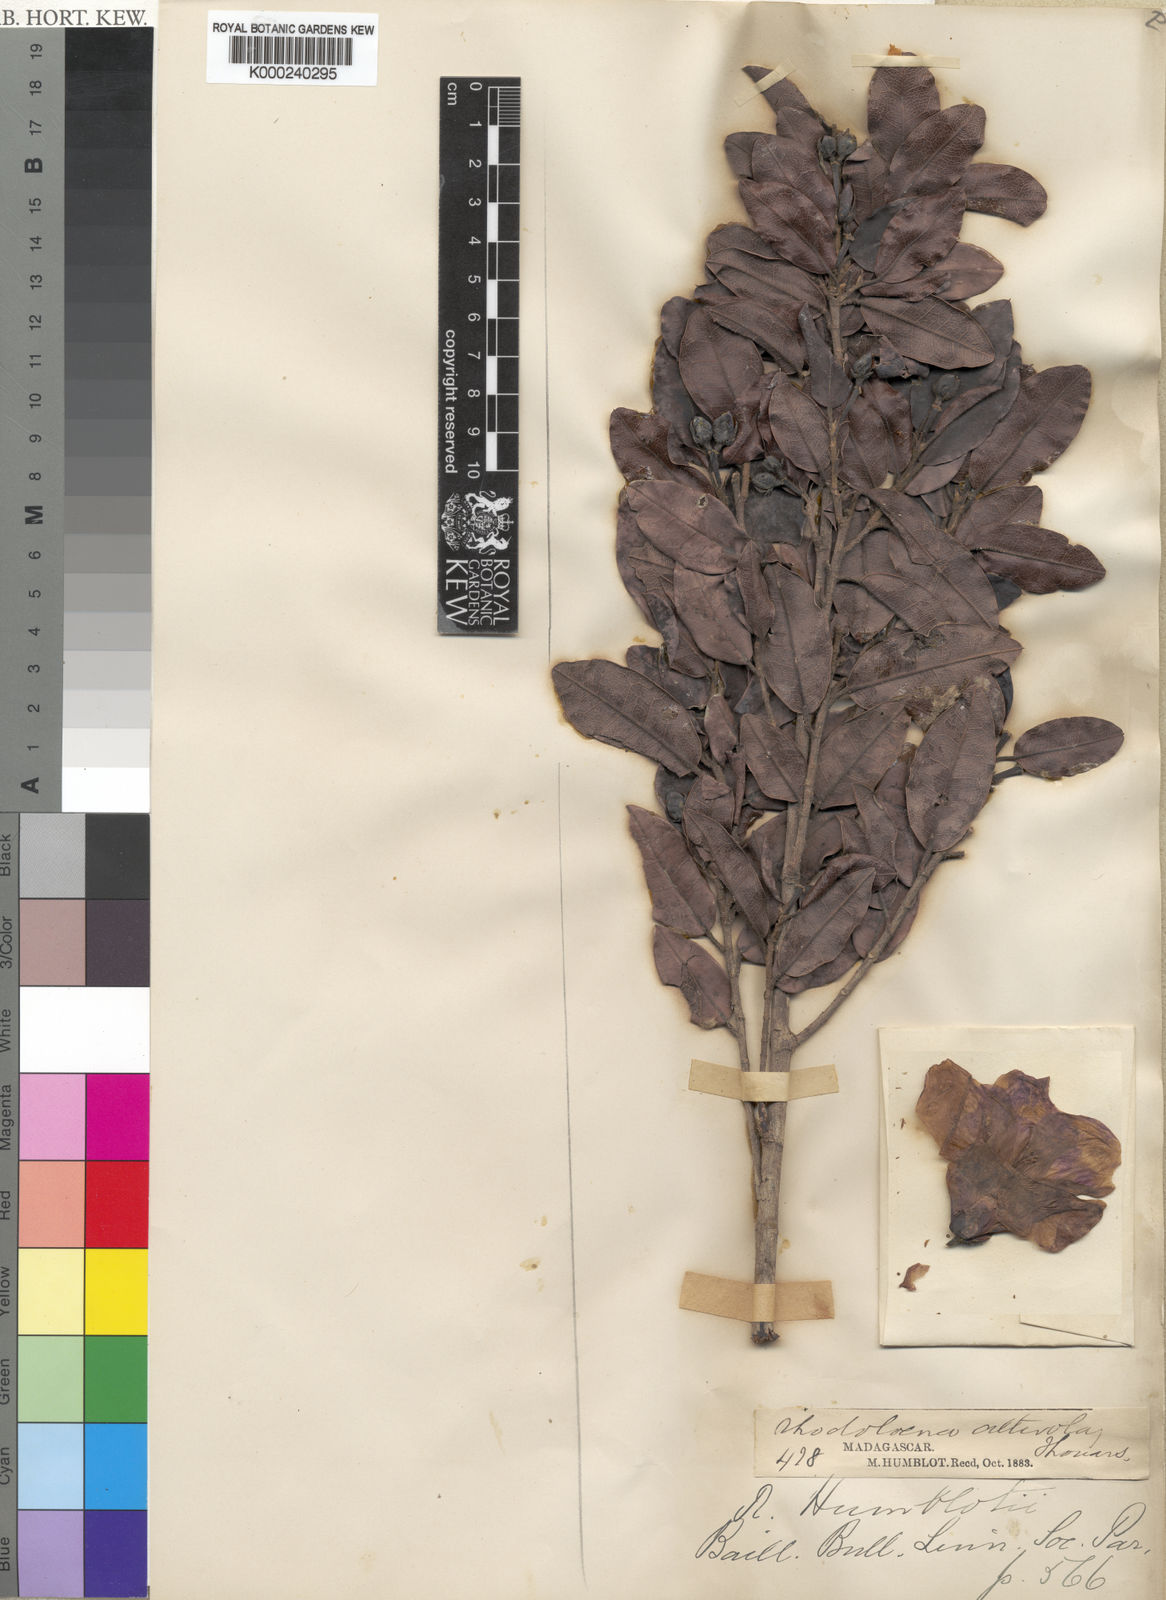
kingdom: Plantae
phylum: Tracheophyta
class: Magnoliopsida
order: Malvales
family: Sarcolaenaceae
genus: Rhodolaena
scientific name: Rhodolaena humblotii
